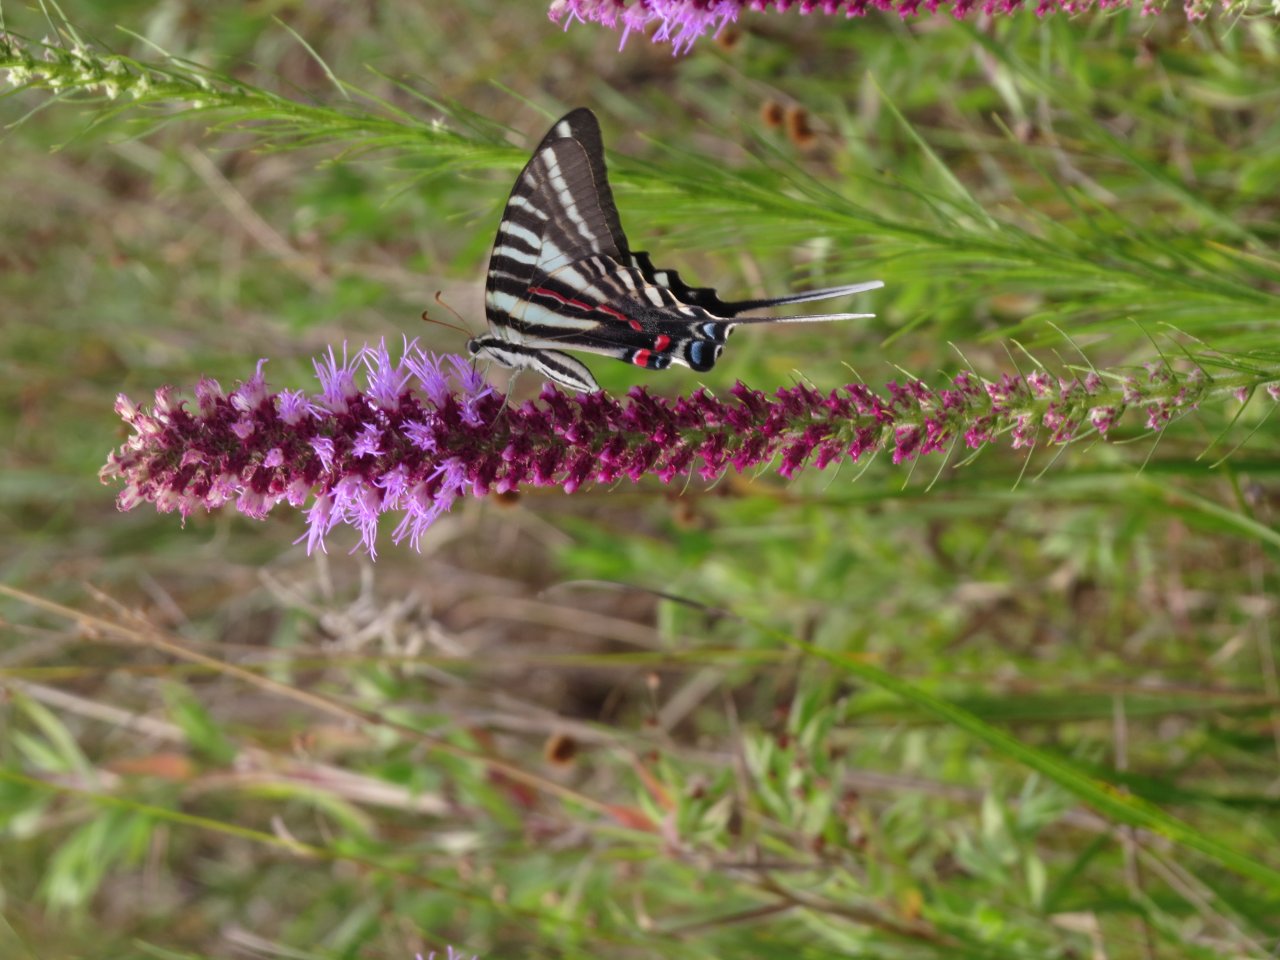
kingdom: Animalia
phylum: Arthropoda
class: Insecta
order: Lepidoptera
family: Papilionidae
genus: Protographium
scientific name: Protographium marcellus
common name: Zebra Swallowtail
